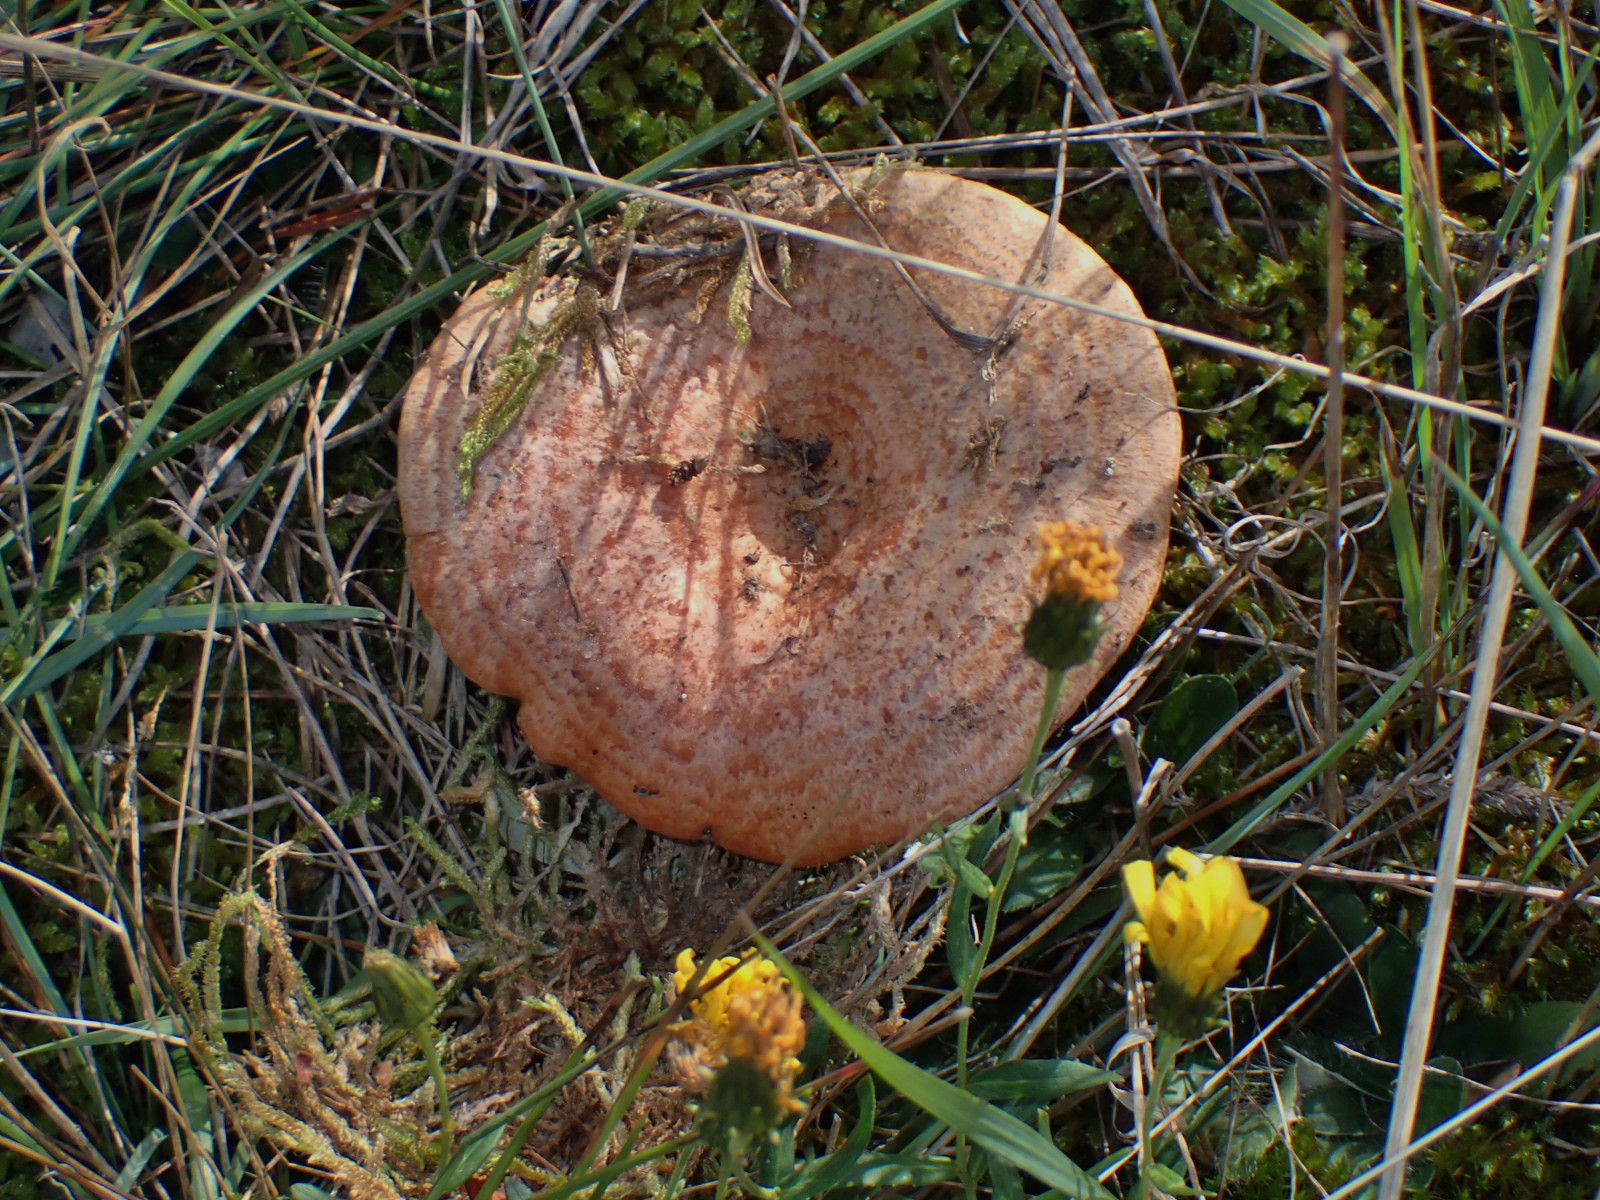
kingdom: Fungi
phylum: Basidiomycota
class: Agaricomycetes
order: Russulales
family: Russulaceae
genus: Lactarius
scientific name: Lactarius deliciosus
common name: velsmagende mælkehat
